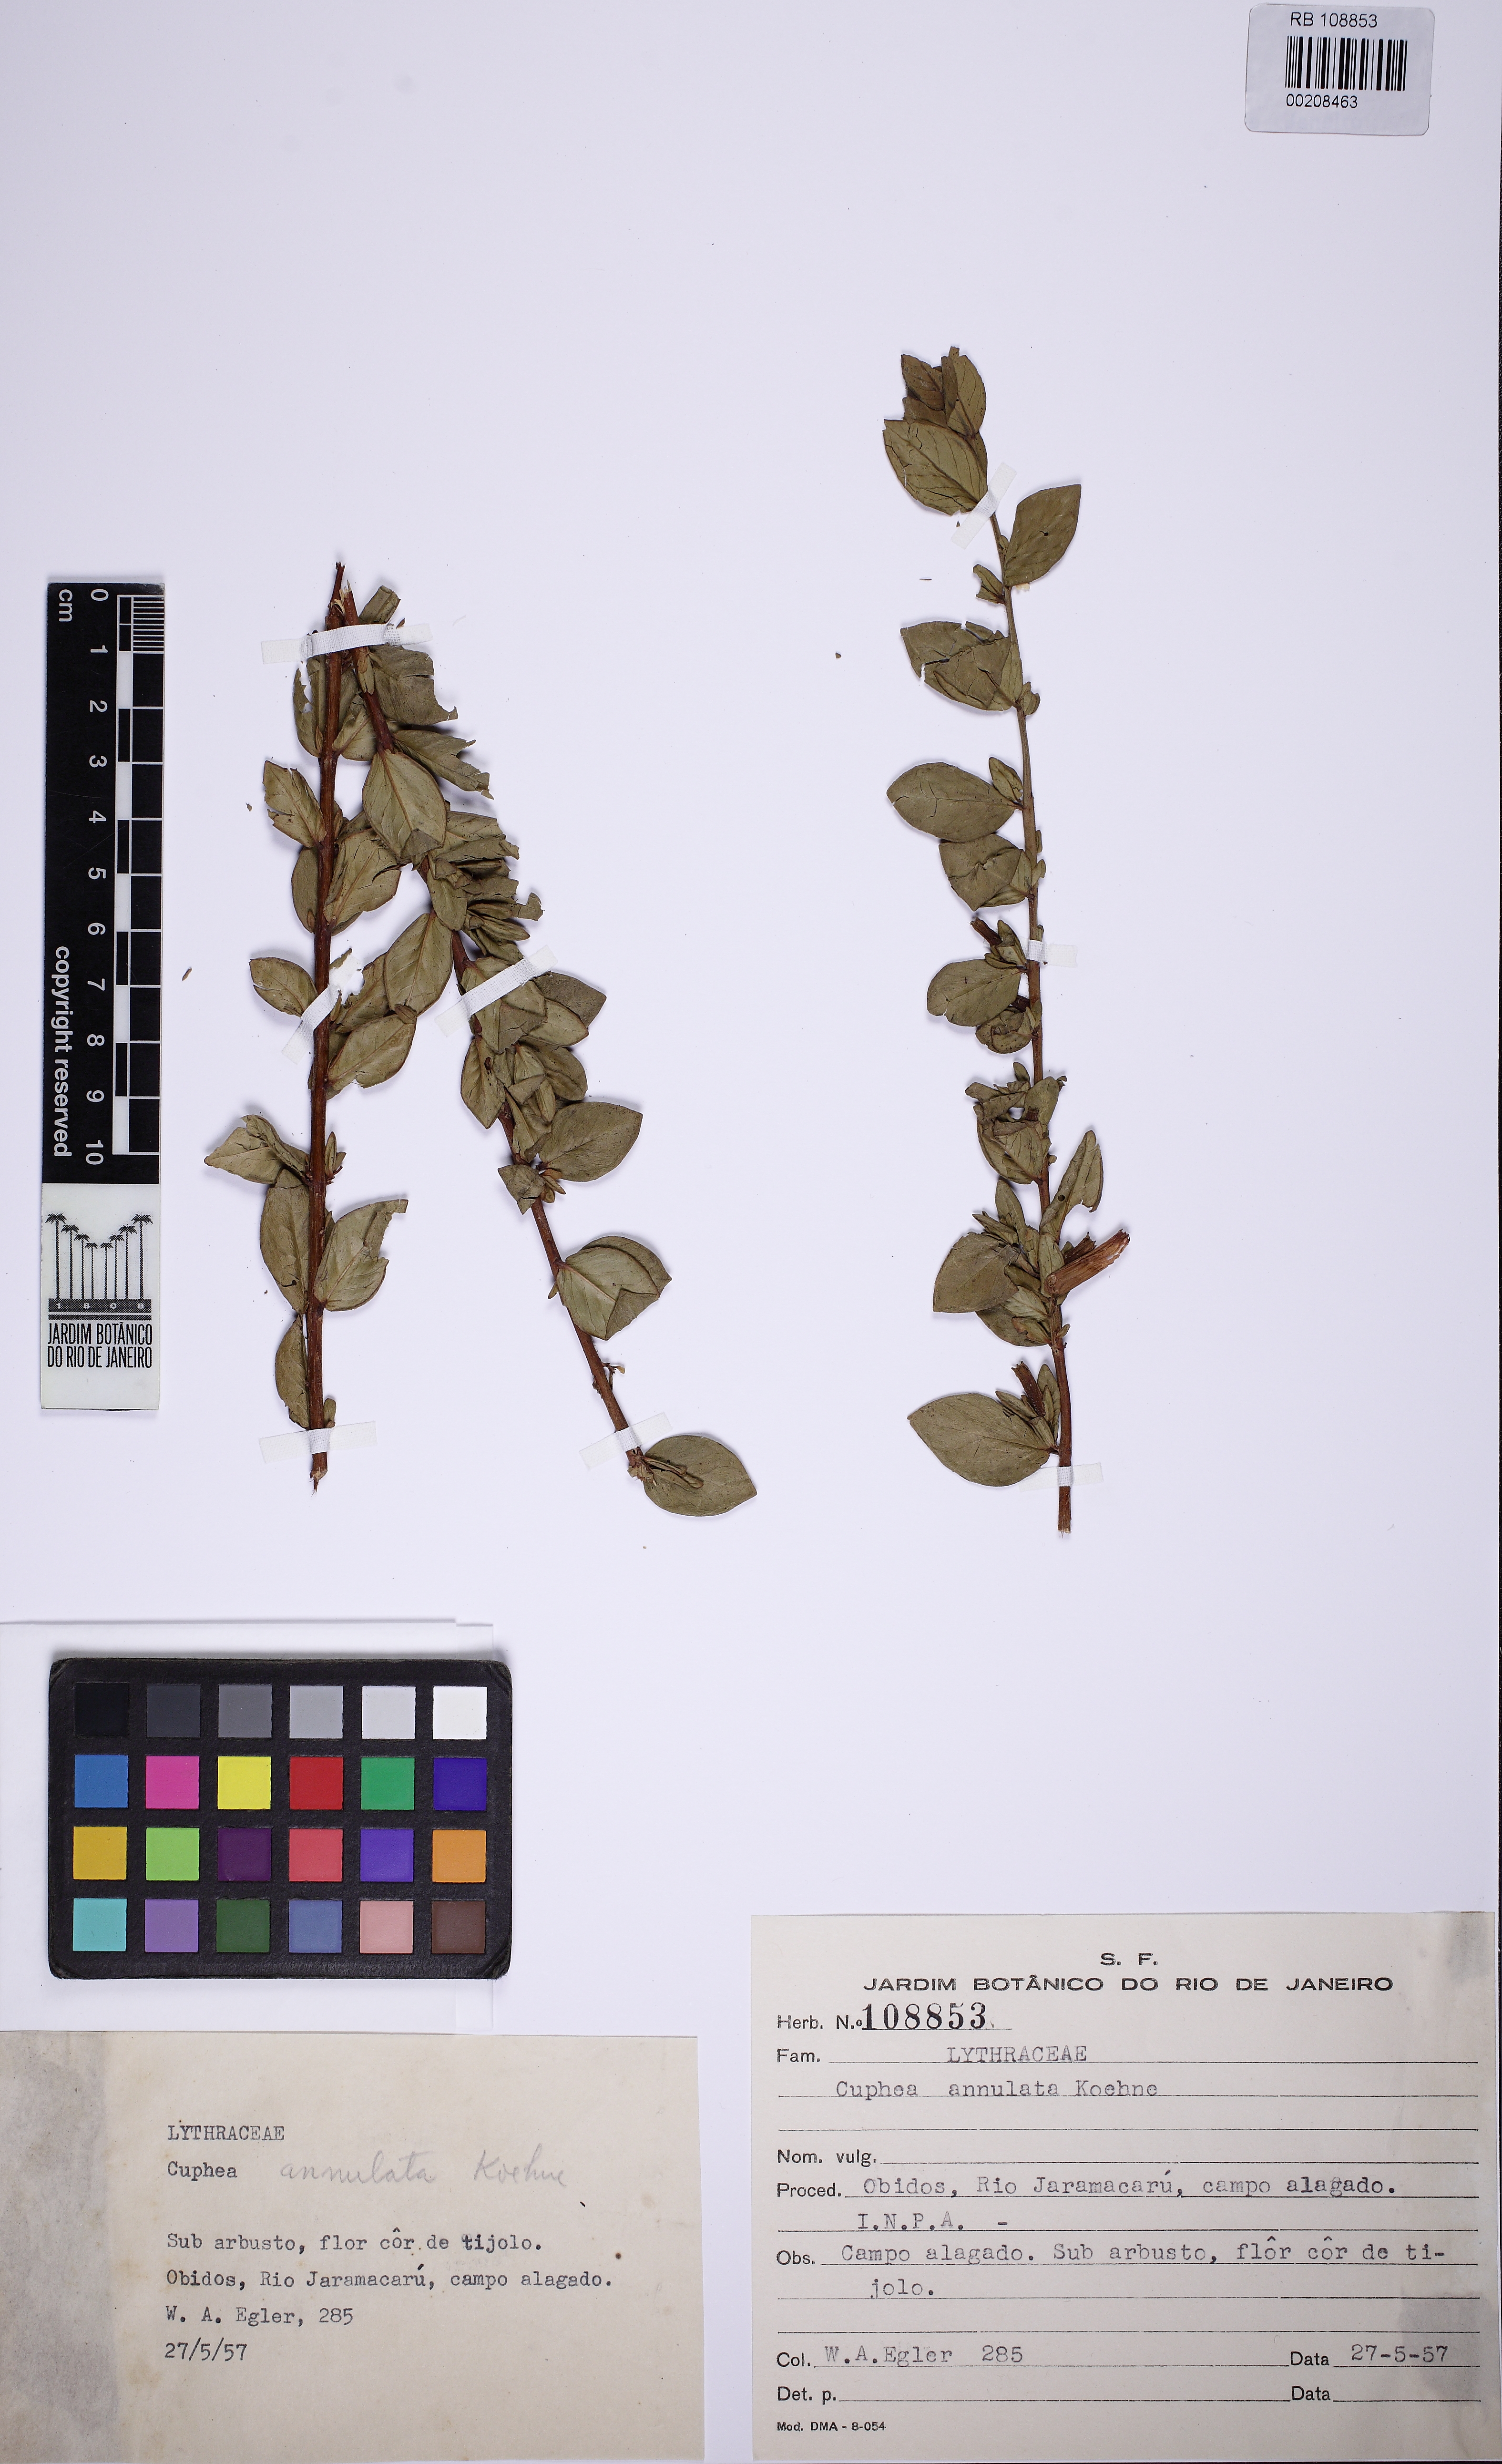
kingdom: Plantae
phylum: Tracheophyta
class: Magnoliopsida
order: Myrtales
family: Lythraceae
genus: Cuphea
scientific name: Cuphea annulata
